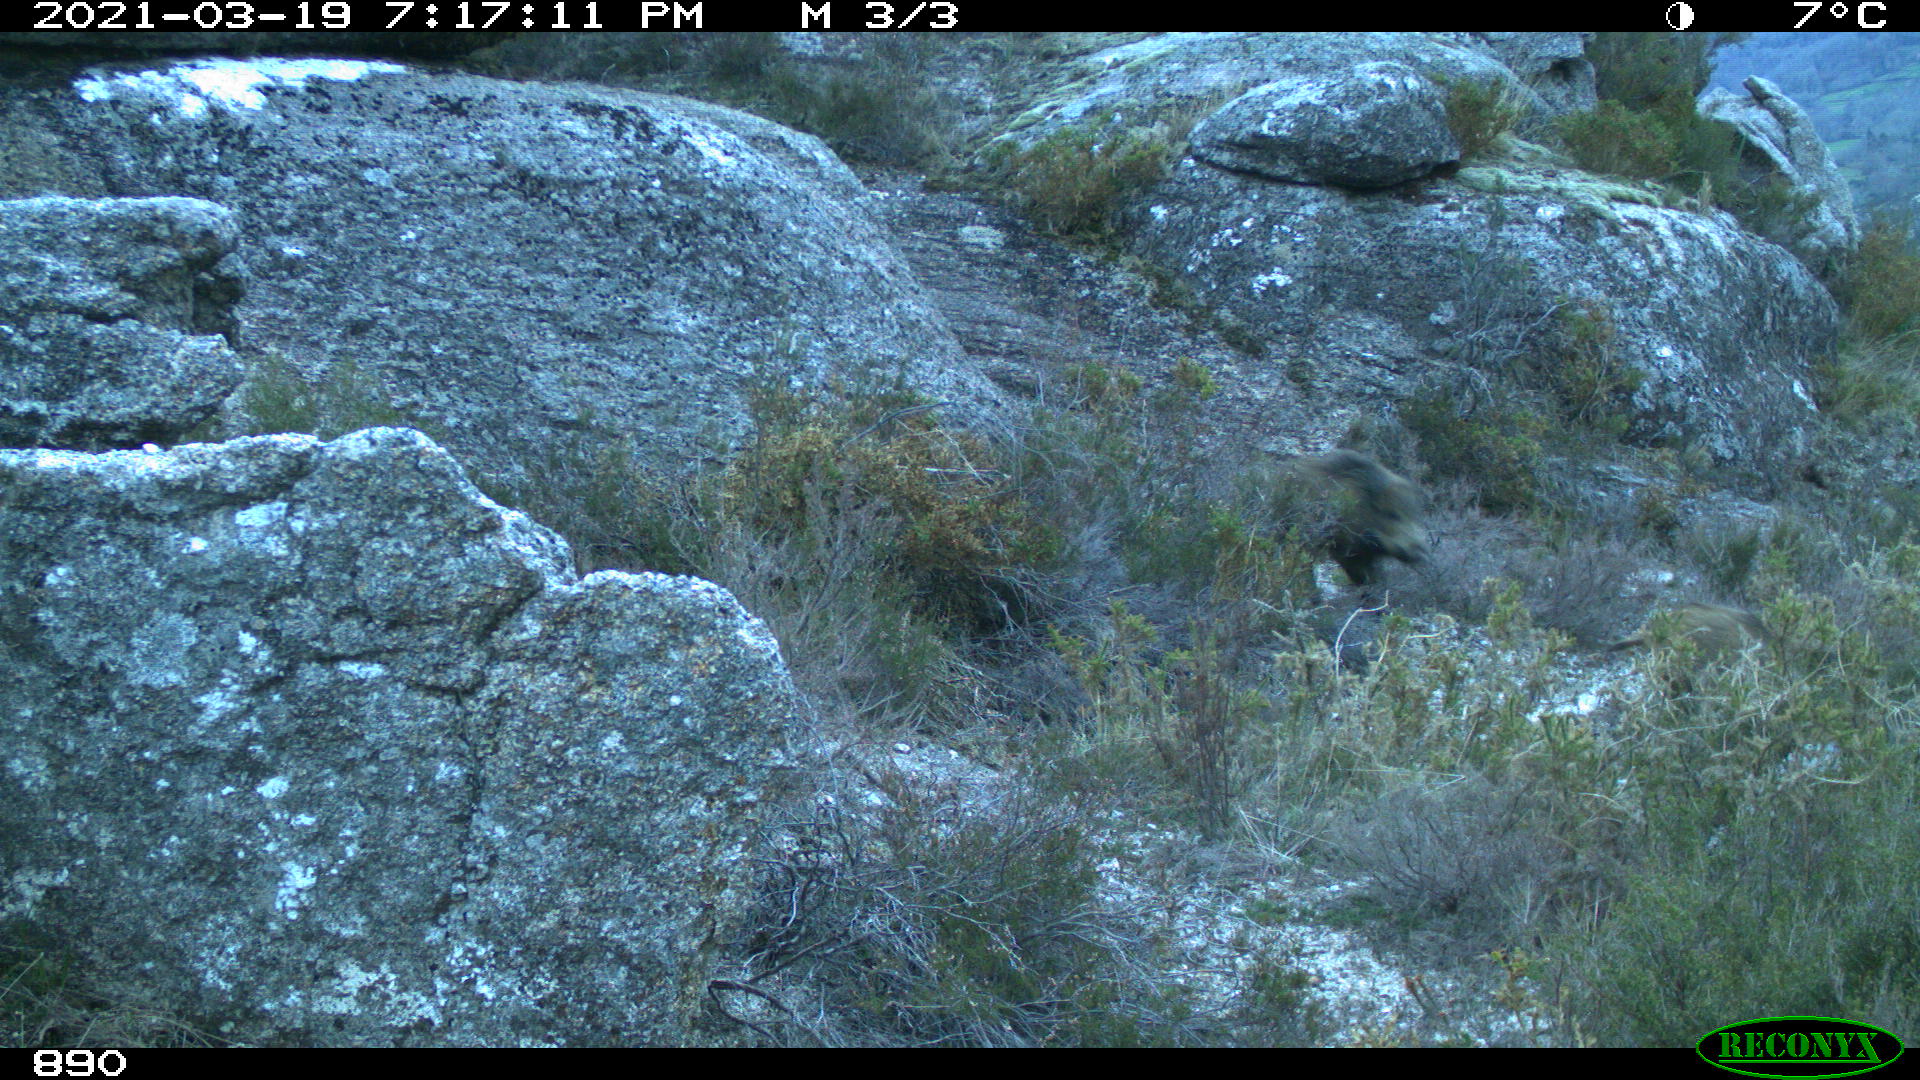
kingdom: Animalia
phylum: Chordata
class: Mammalia
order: Artiodactyla
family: Suidae
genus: Sus
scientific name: Sus scrofa
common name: Wild boar
